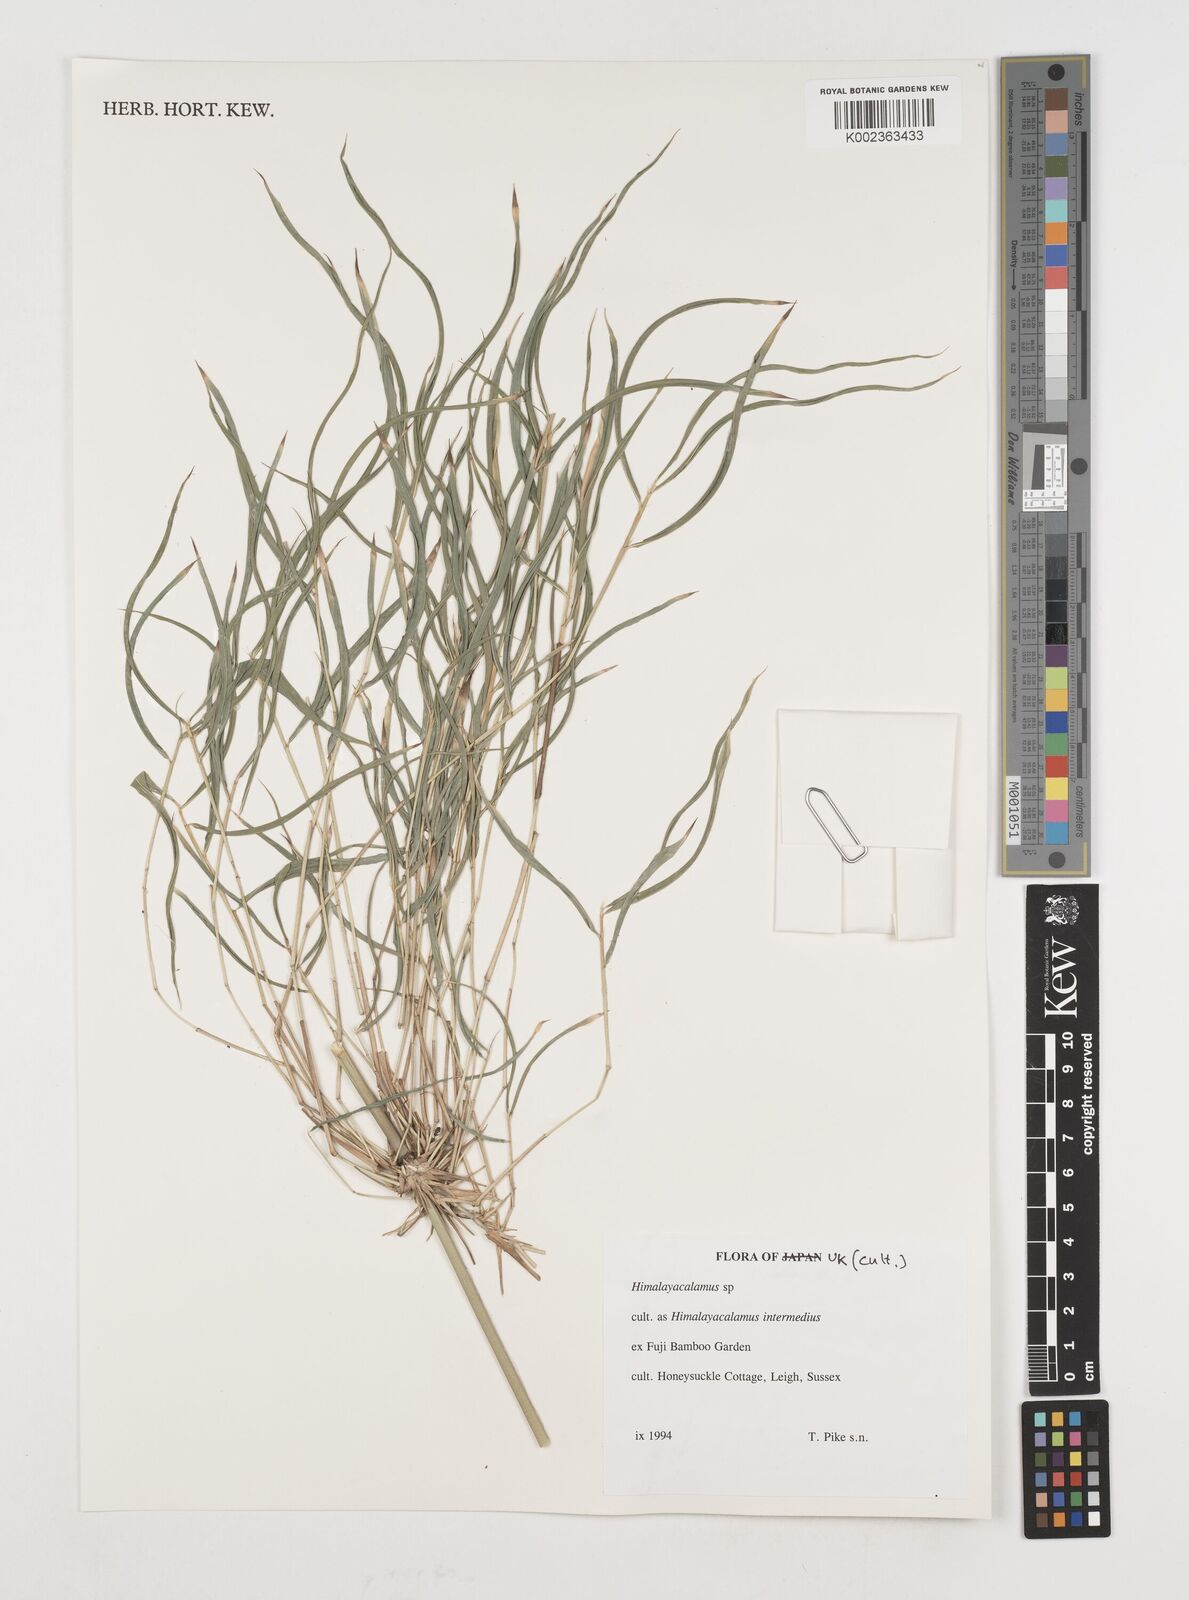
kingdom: Plantae
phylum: Tracheophyta
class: Liliopsida
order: Poales
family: Poaceae
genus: Himalayacalamus
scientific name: Himalayacalamus
